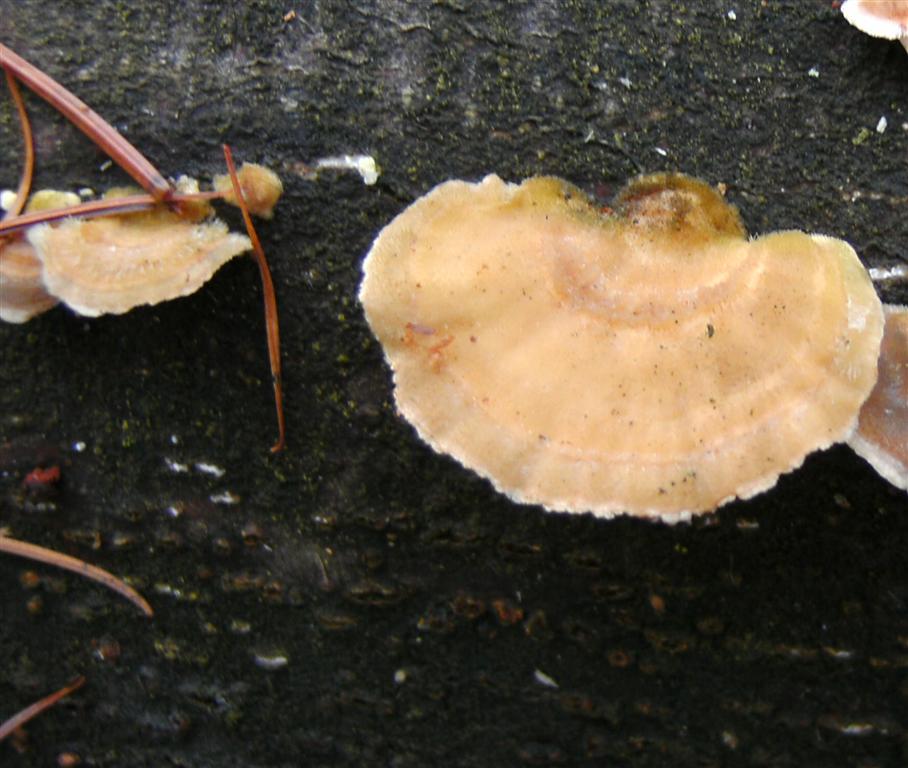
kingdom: Fungi
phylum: Basidiomycota
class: Agaricomycetes
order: Polyporales
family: Polyporaceae
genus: Trametes
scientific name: Trametes hirsuta
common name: håret læderporesvamp
